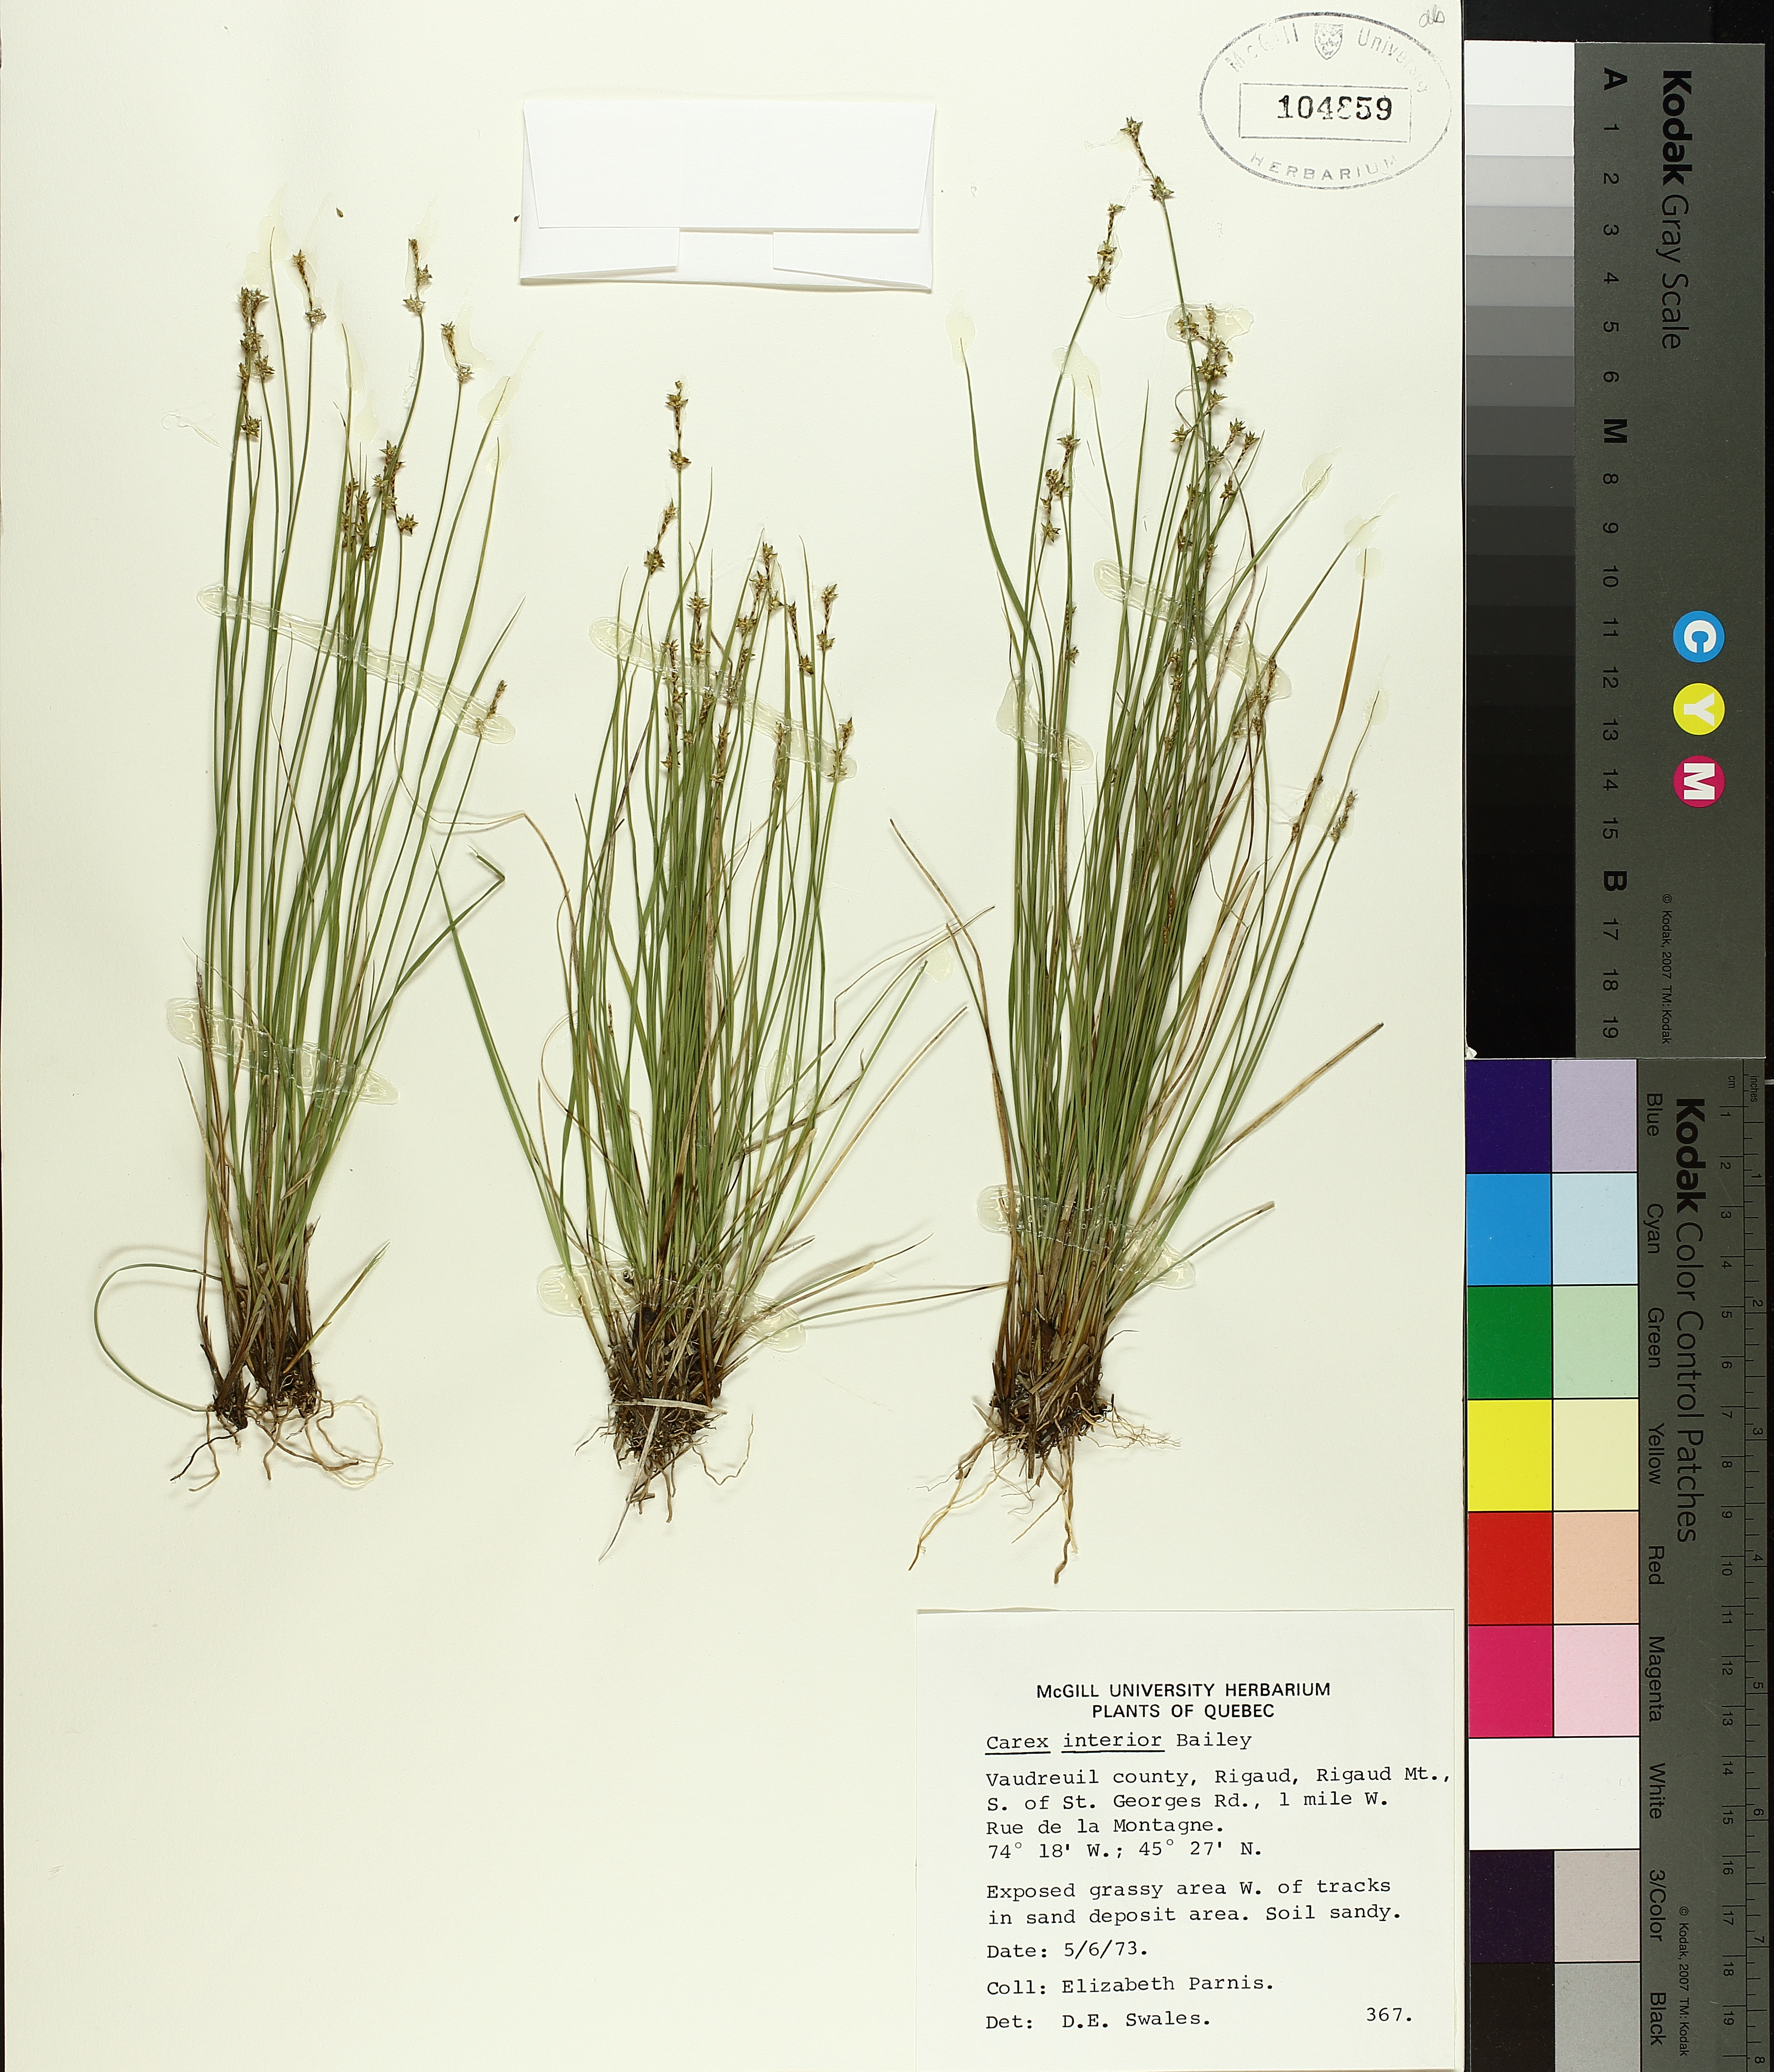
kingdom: Plantae
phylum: Tracheophyta
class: Liliopsida
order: Poales
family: Cyperaceae
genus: Carex
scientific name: Carex interior
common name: Inland sedge
